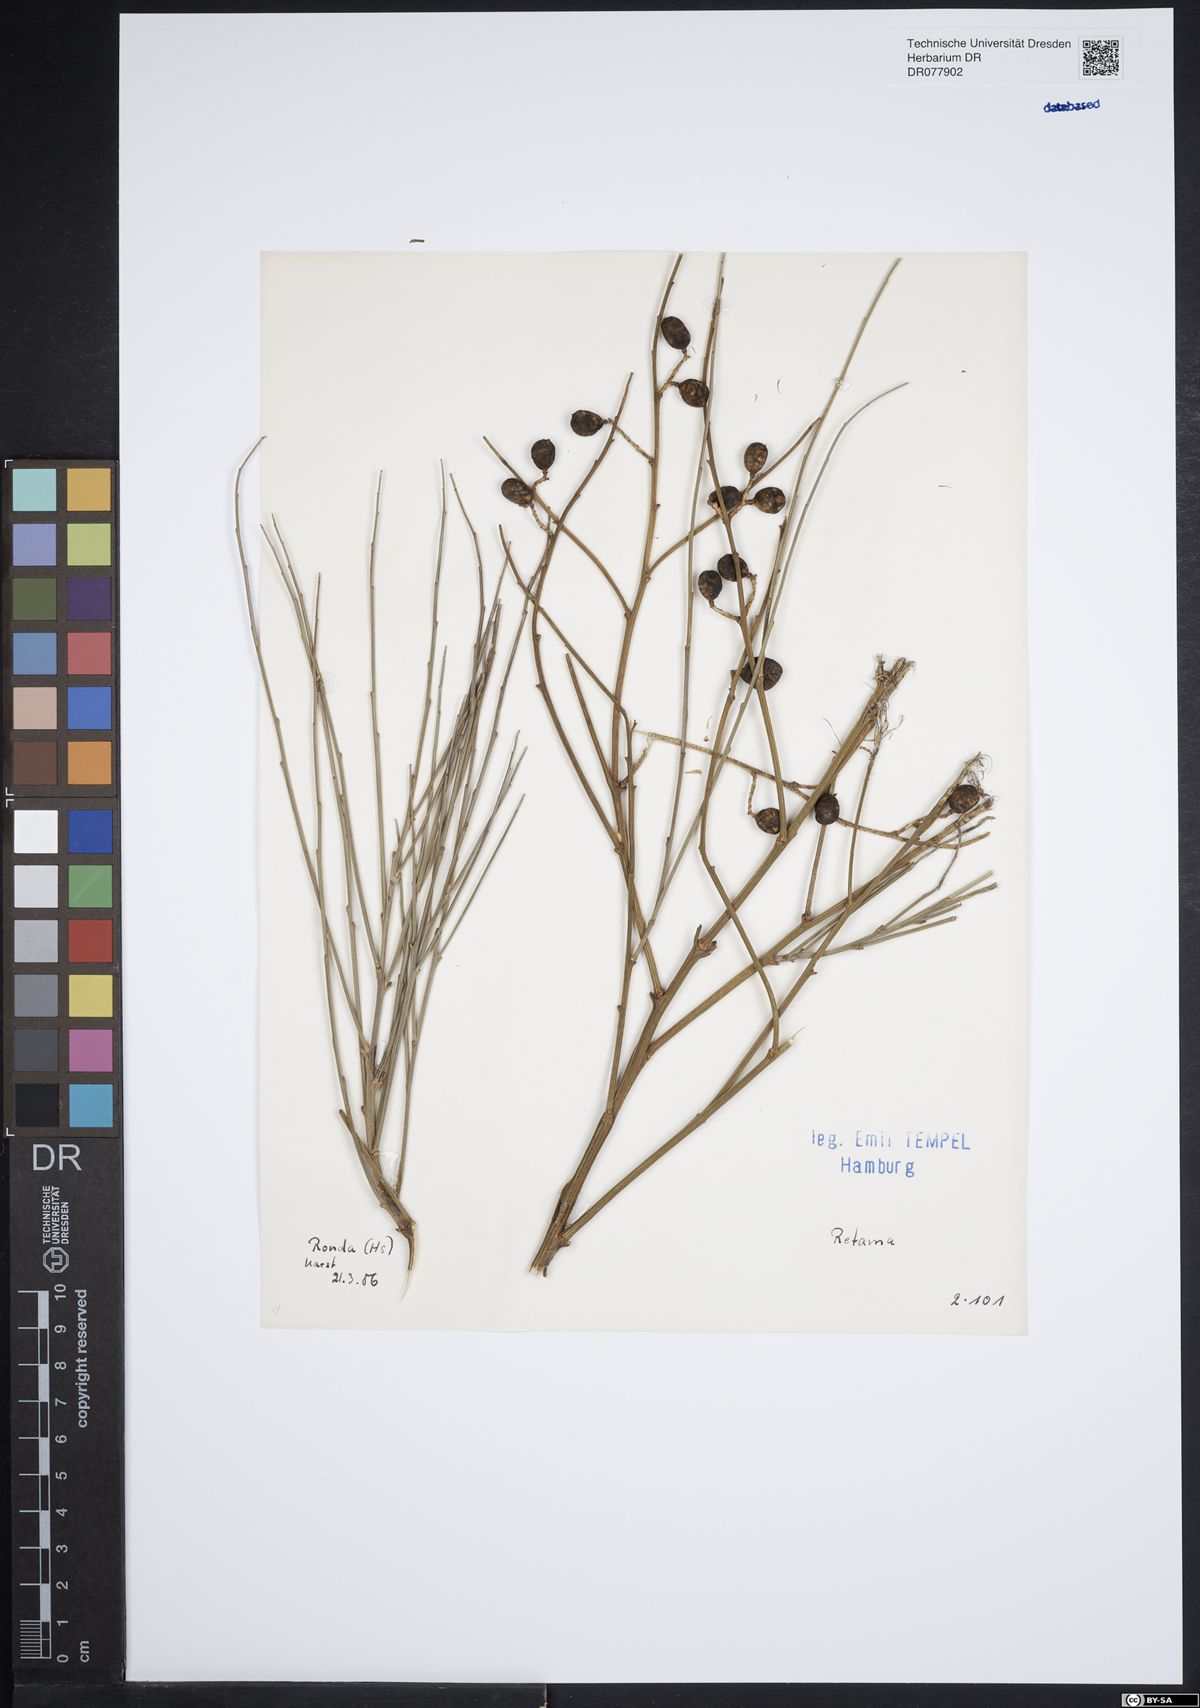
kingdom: Plantae
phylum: Tracheophyta
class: Magnoliopsida
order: Fabales
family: Fabaceae
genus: Retama
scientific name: Retama
